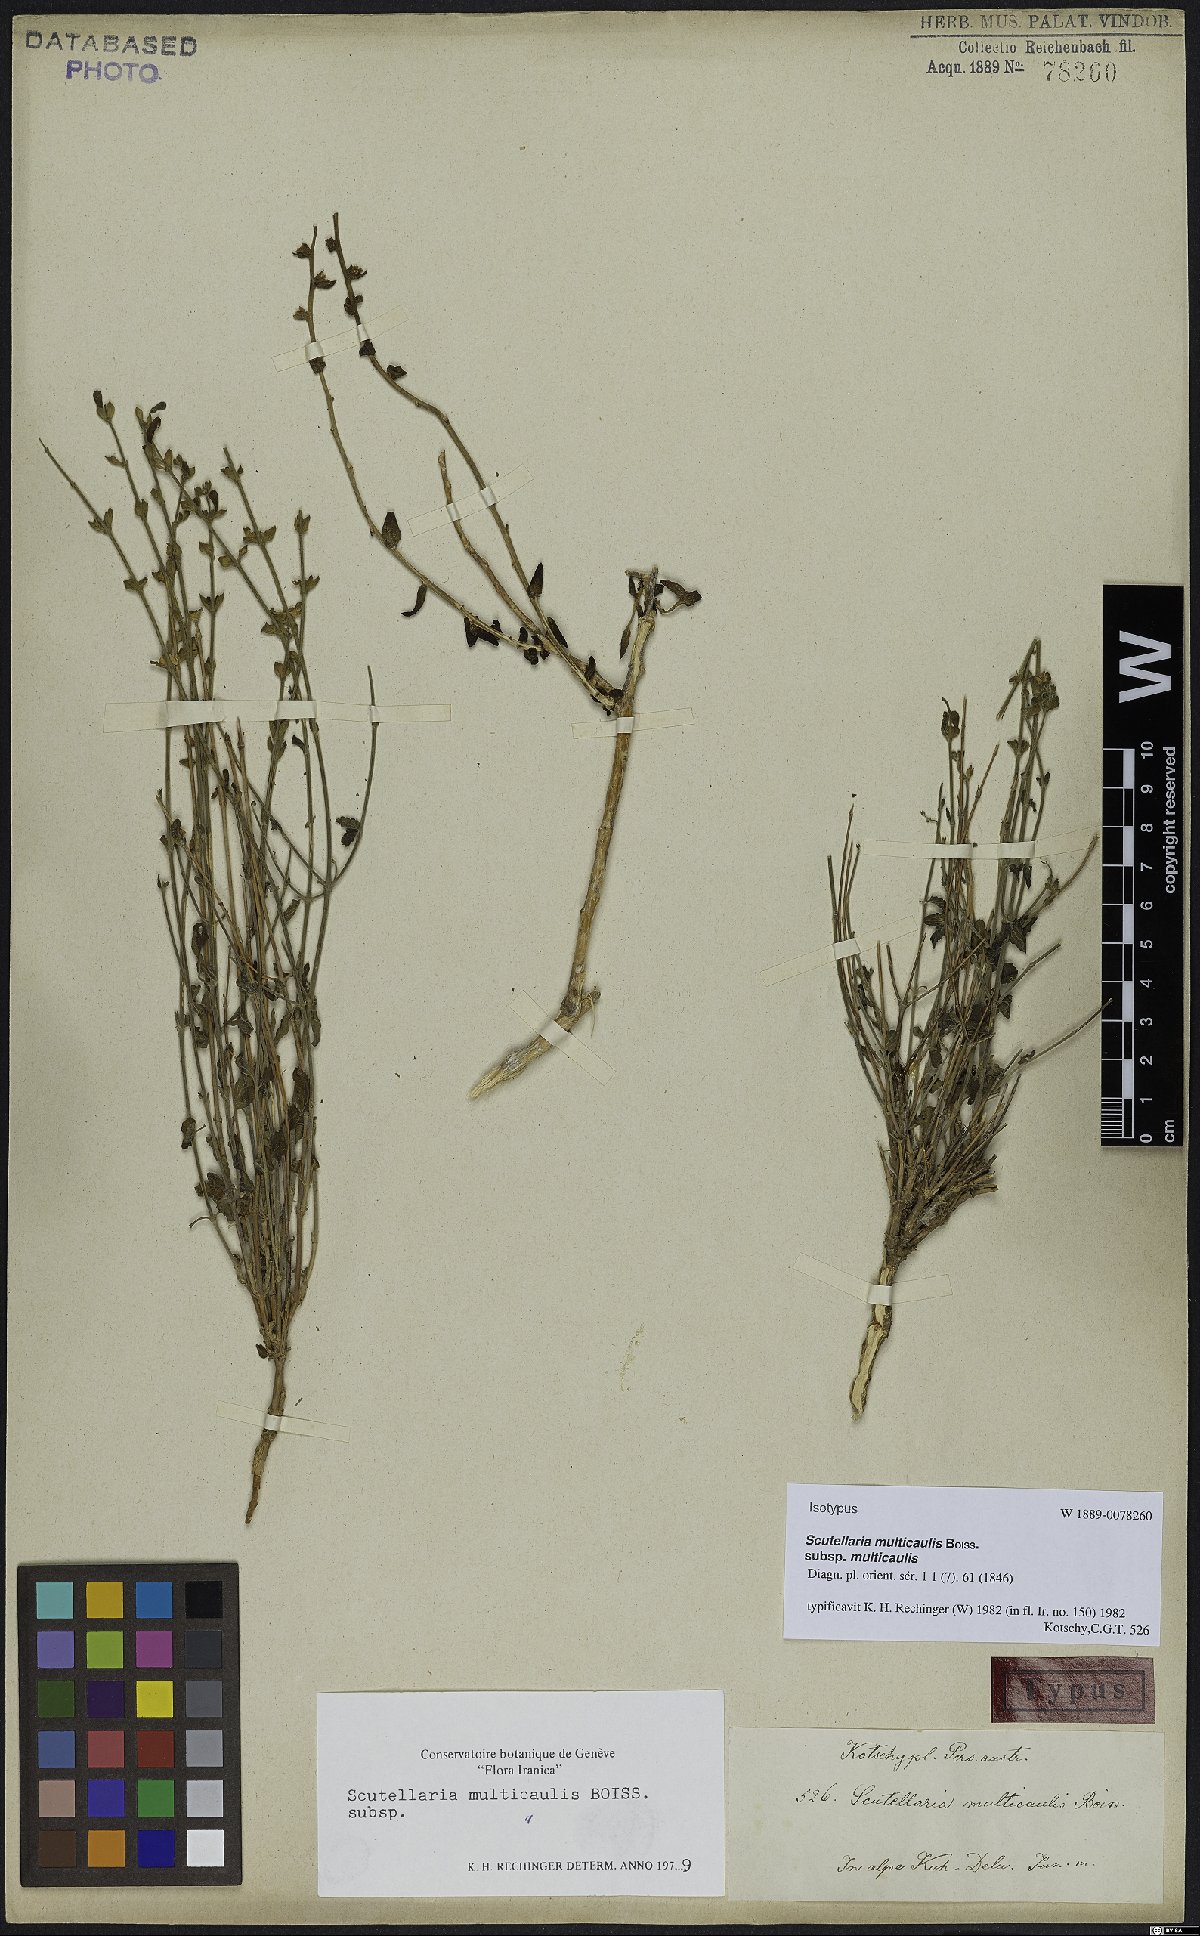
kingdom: Plantae
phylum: Tracheophyta
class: Magnoliopsida
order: Lamiales
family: Lamiaceae
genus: Scutellaria
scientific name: Scutellaria multicaulis
